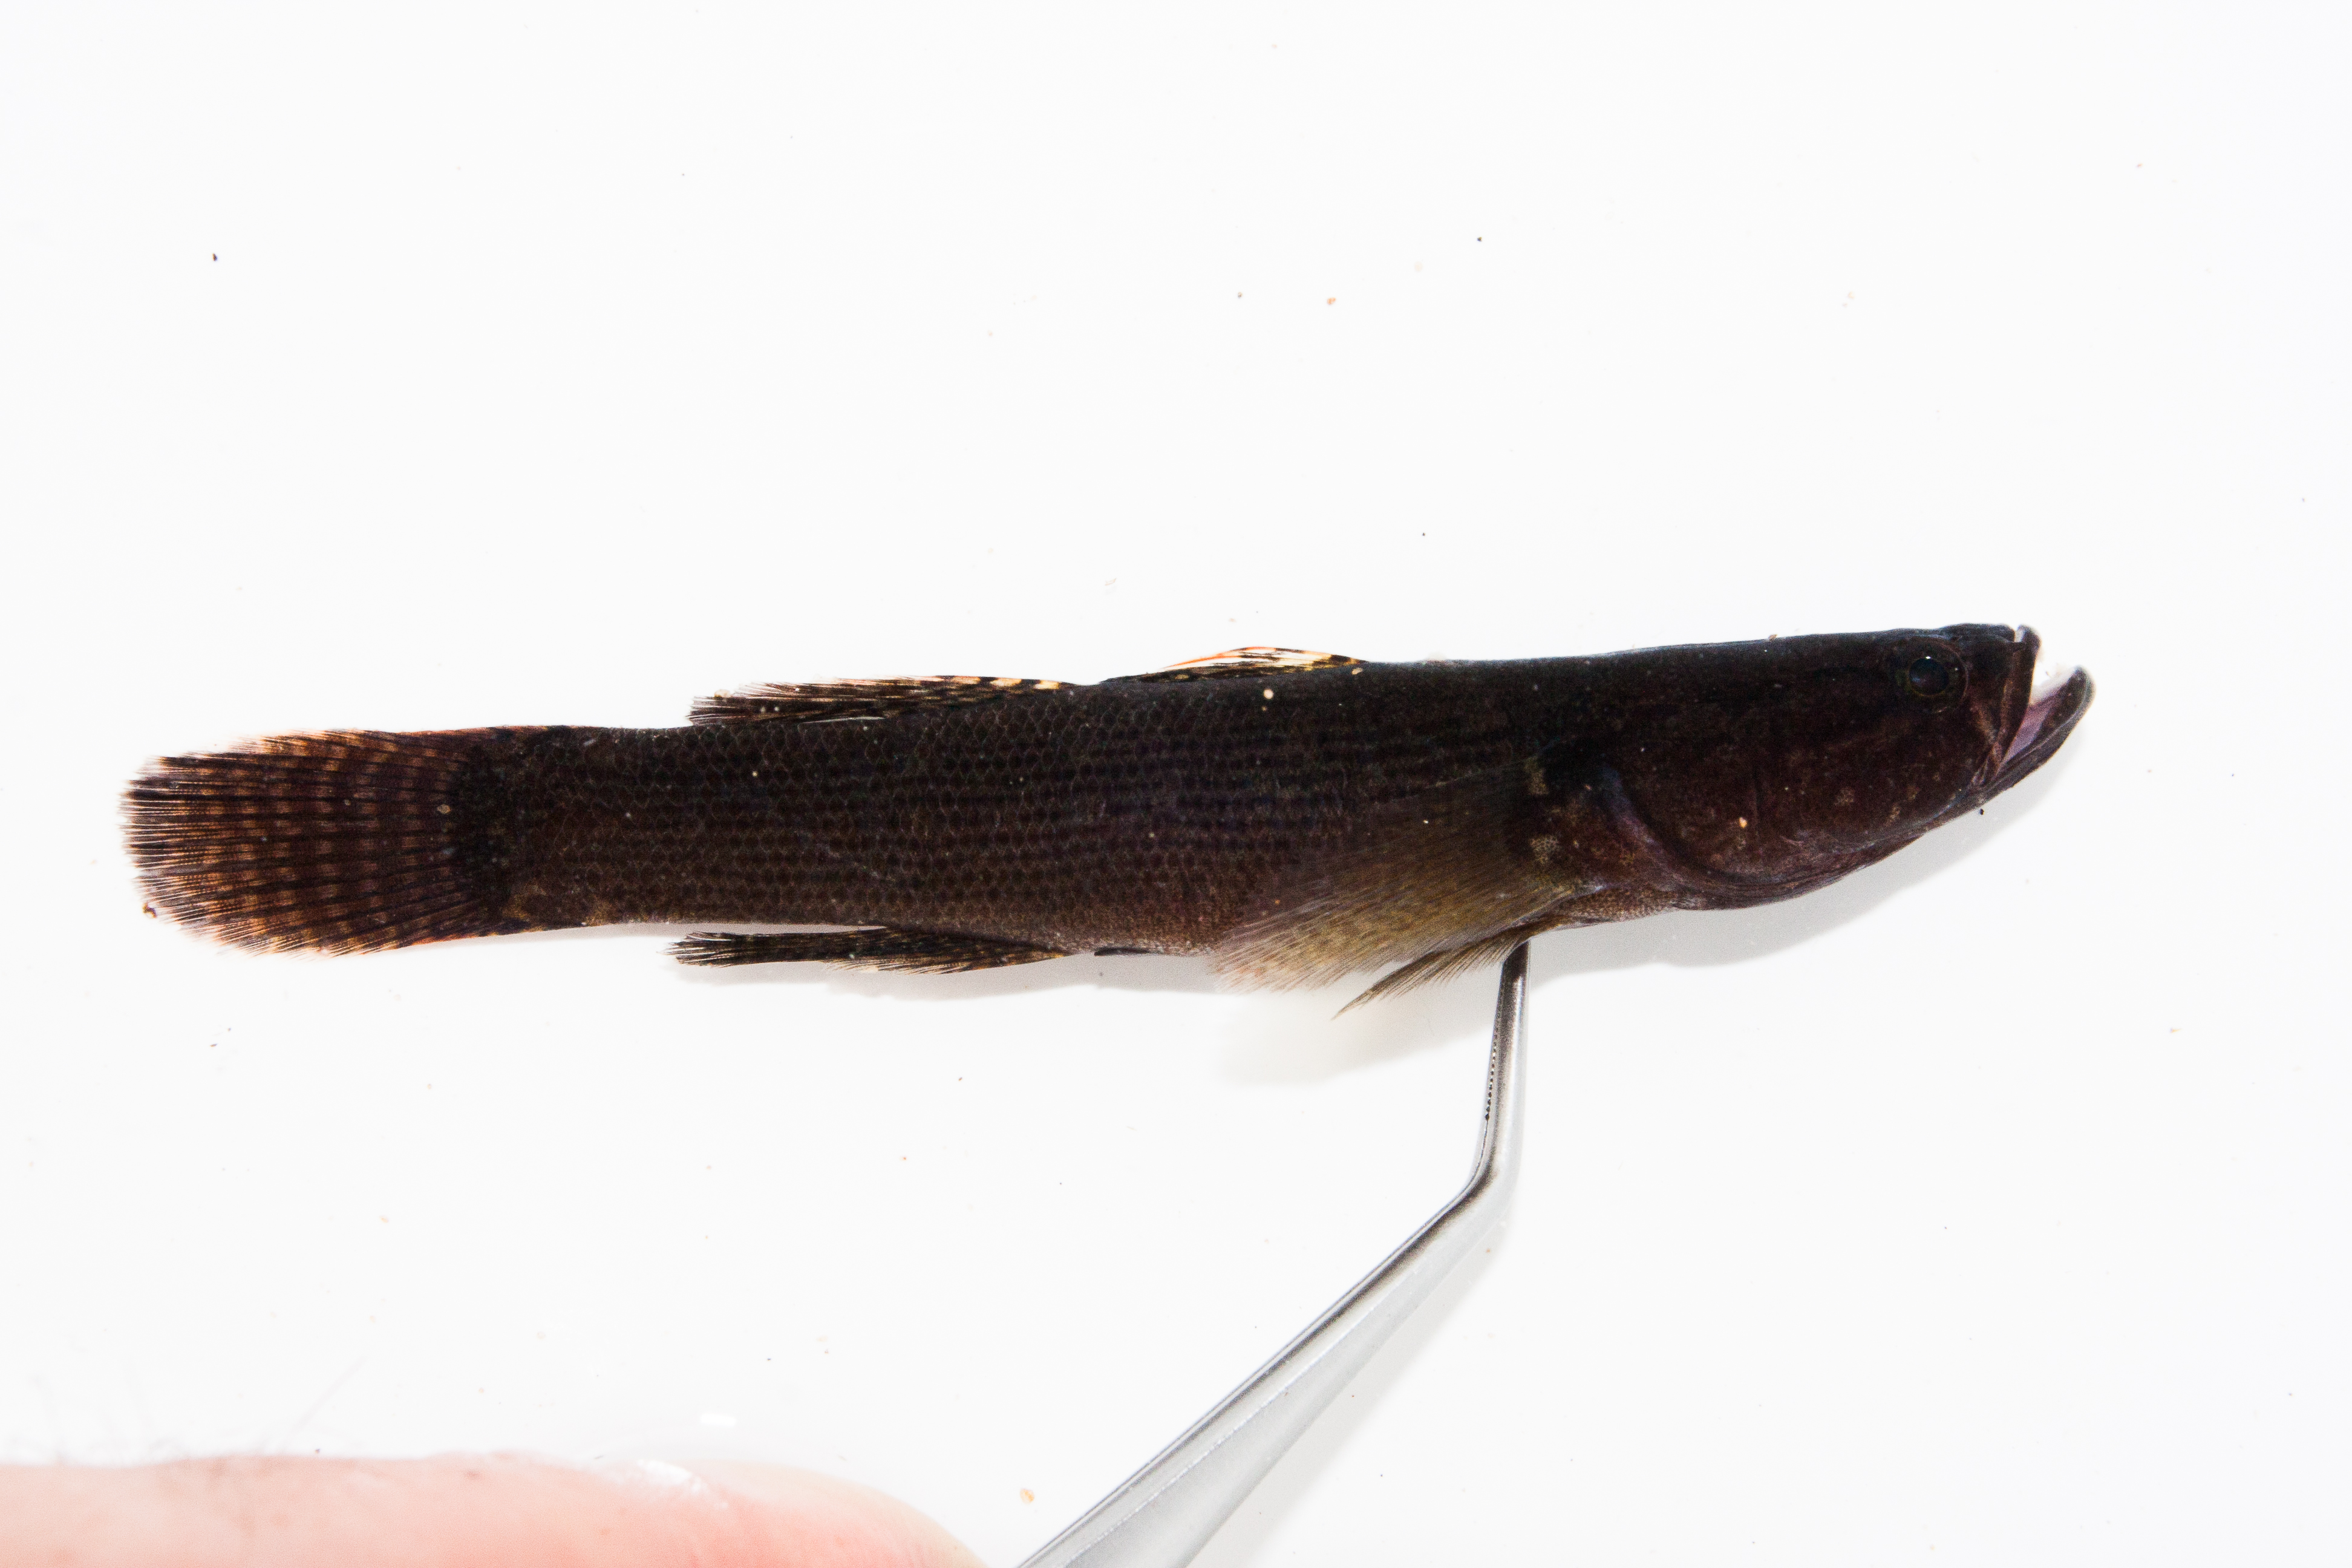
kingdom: Animalia
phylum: Chordata
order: Perciformes
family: Eleotridae
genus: Eleotris
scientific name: Eleotris fusca
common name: Brown gudgeon
